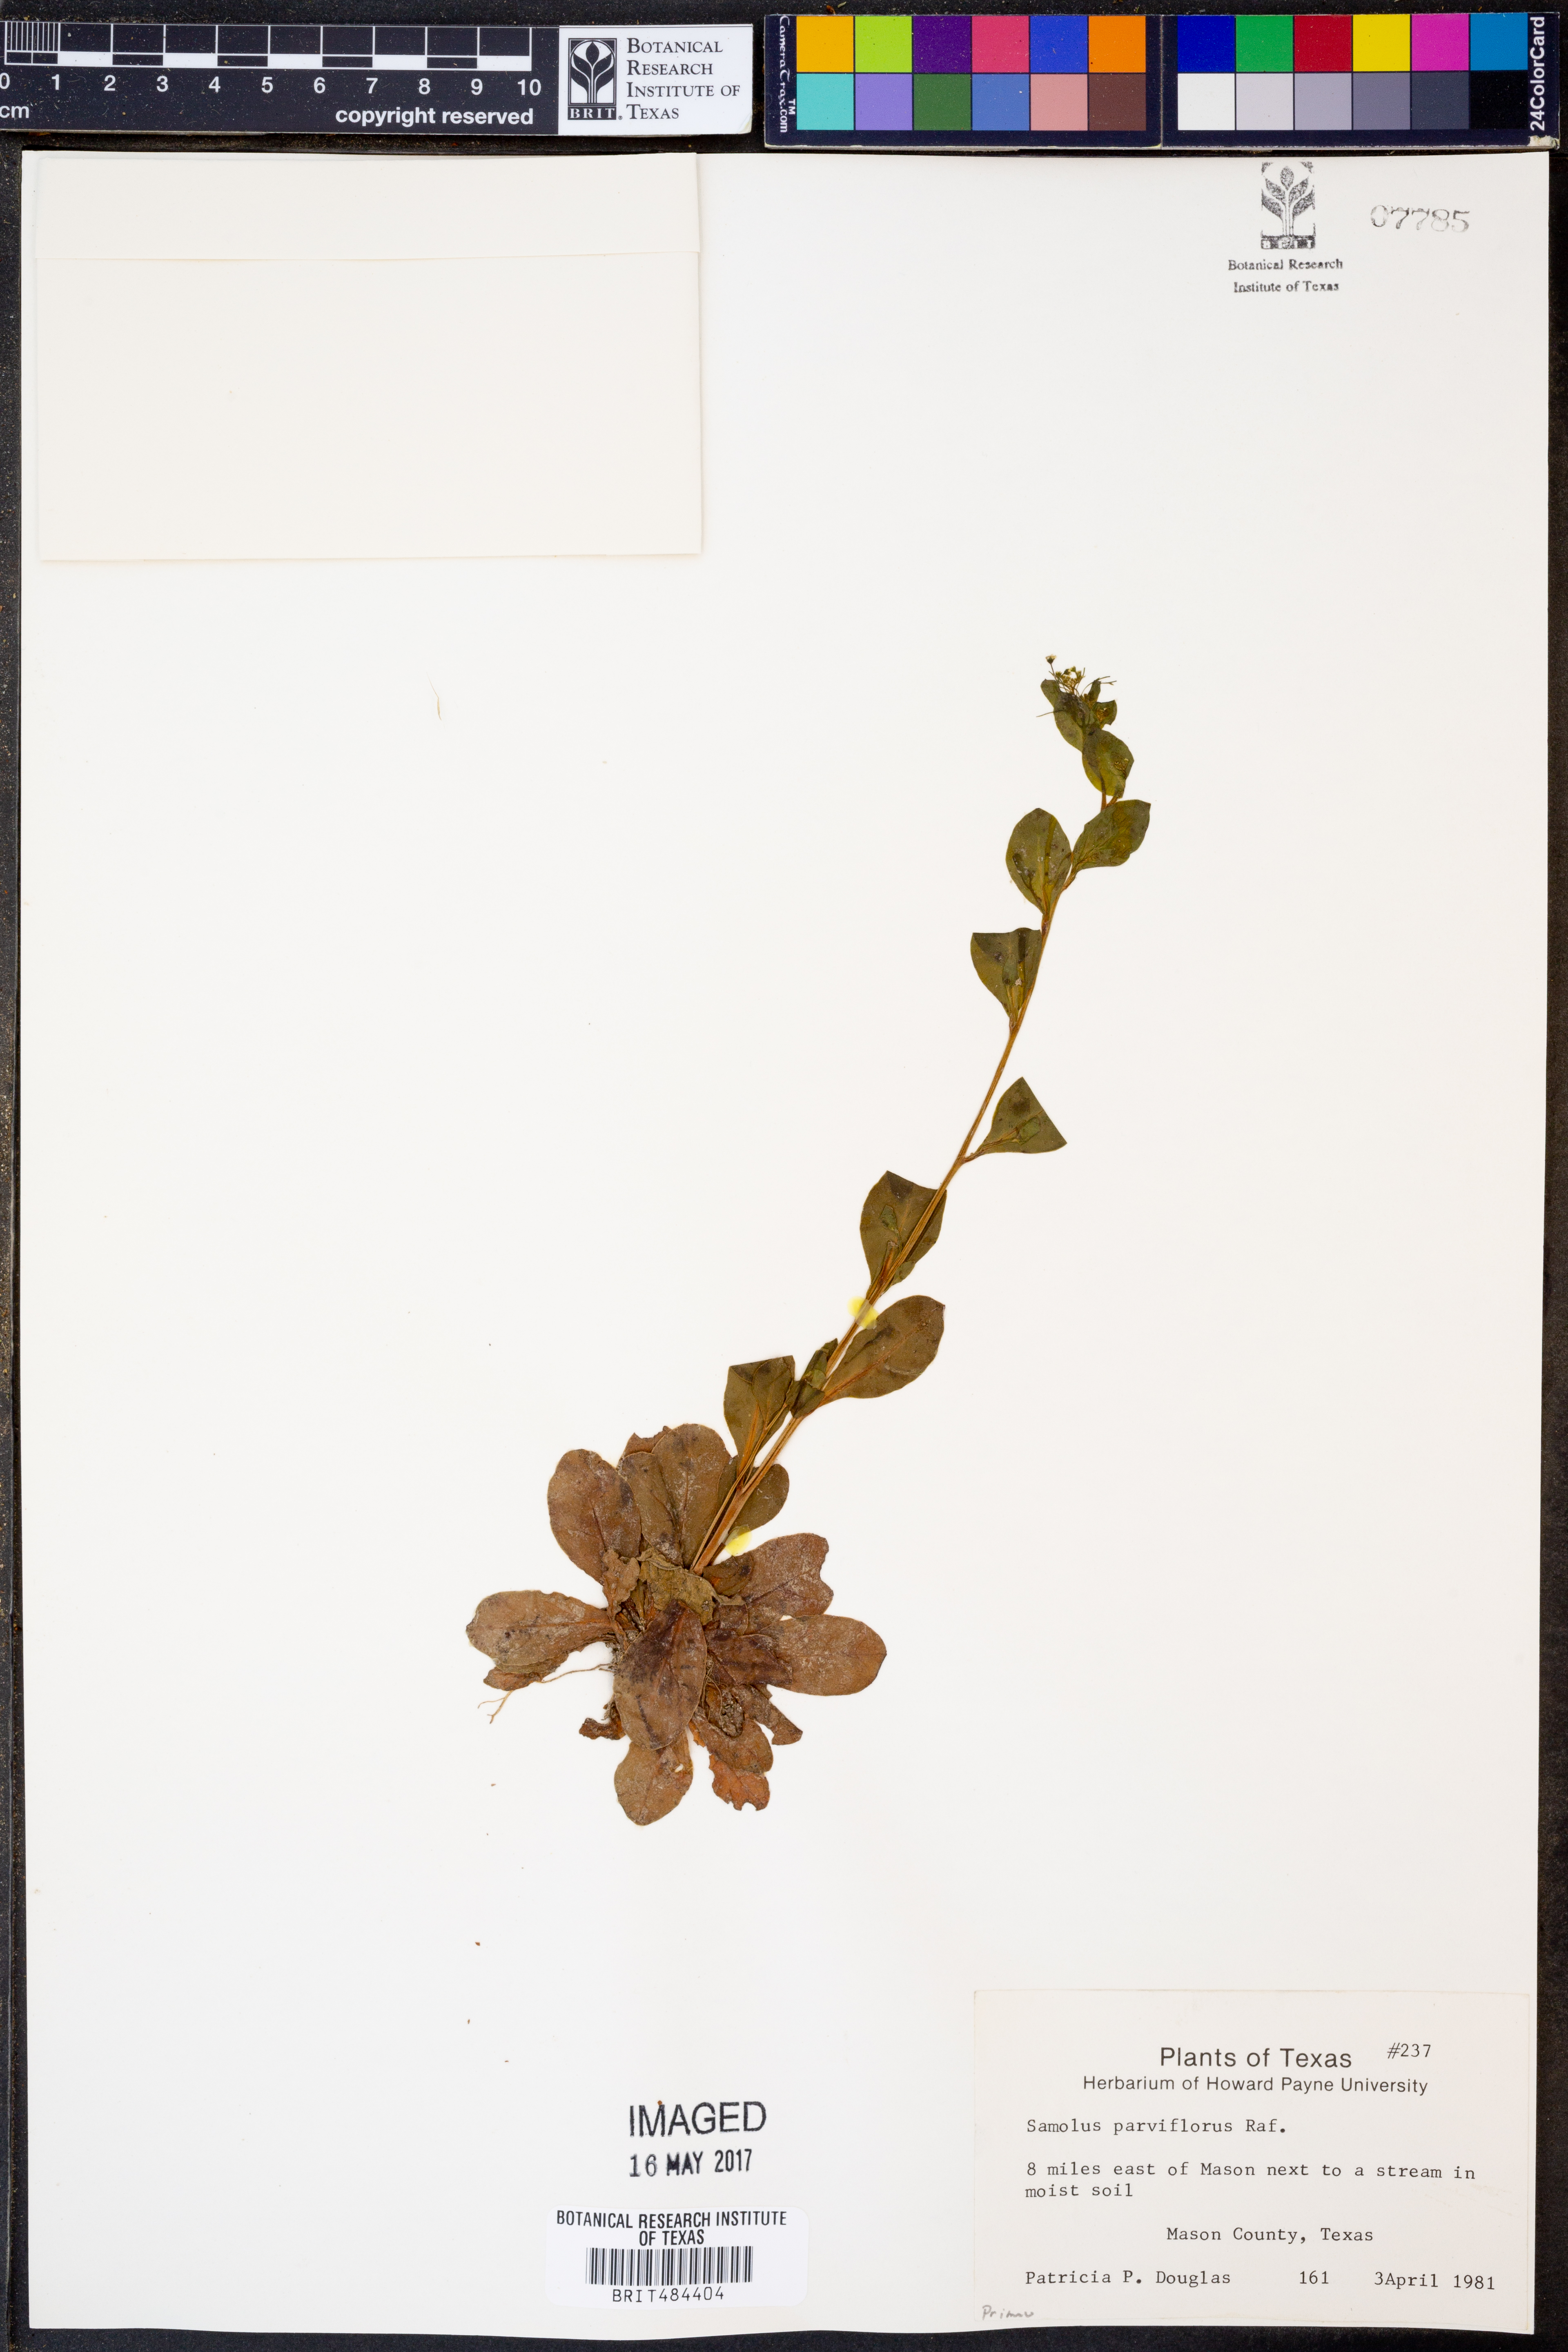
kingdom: Plantae
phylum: Tracheophyta
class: Magnoliopsida
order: Ericales
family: Primulaceae
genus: Samolus
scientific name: Samolus parviflorus
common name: False water pimpernel
